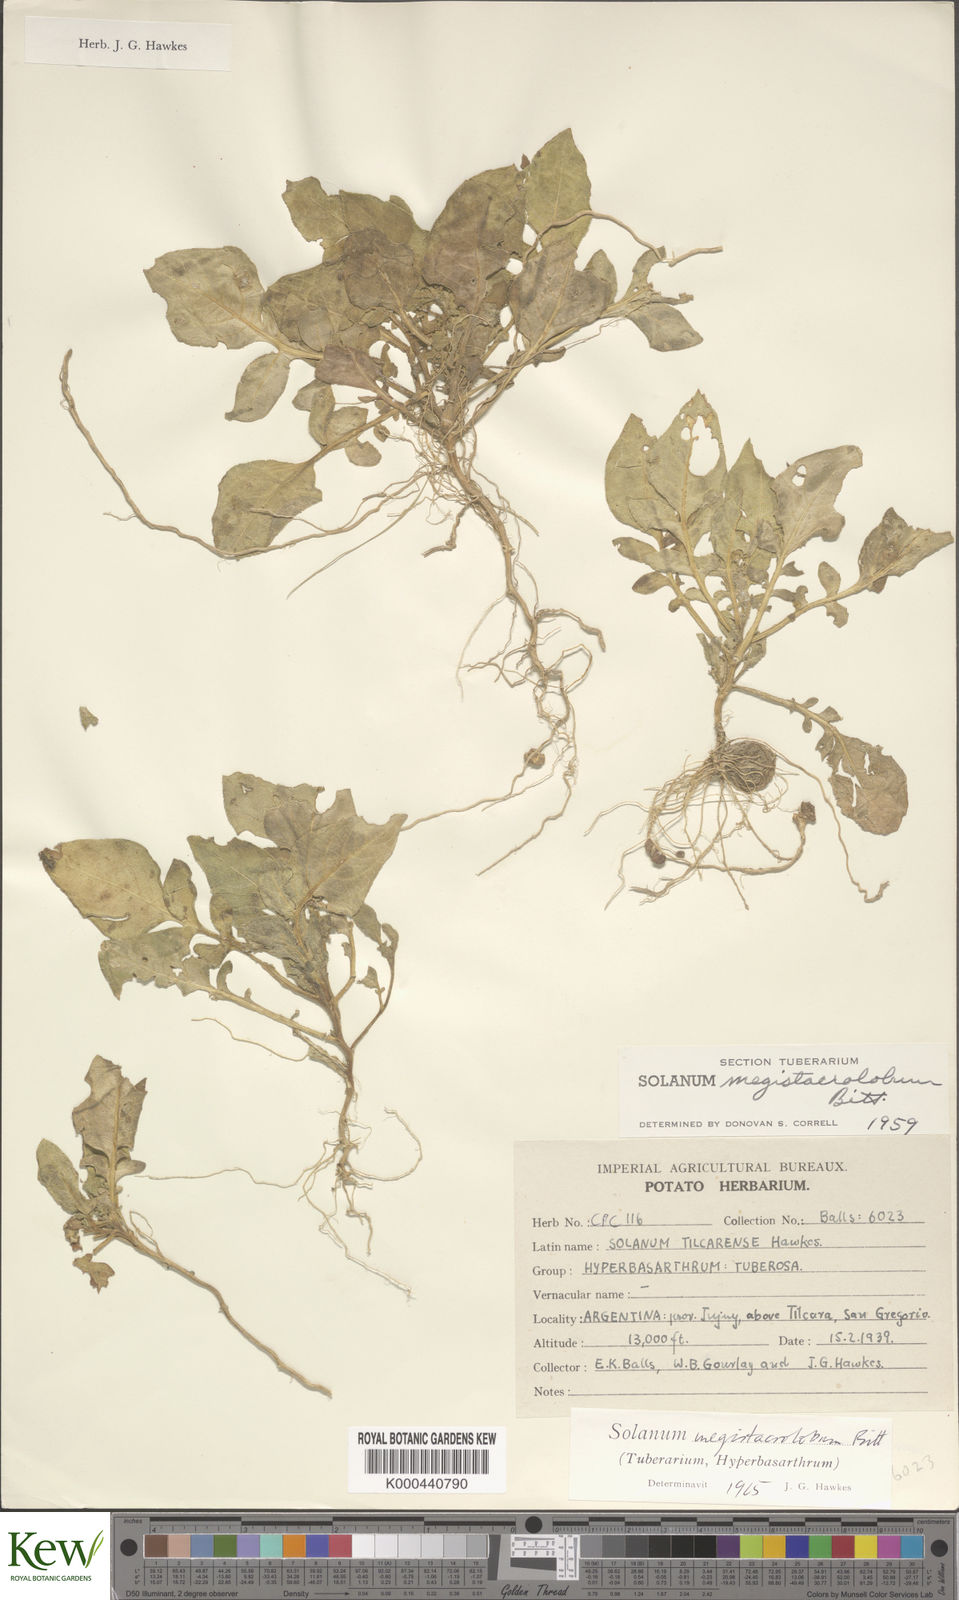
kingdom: Plantae
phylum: Tracheophyta
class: Magnoliopsida
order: Solanales
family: Solanaceae
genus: Solanum
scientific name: Solanum boliviense
